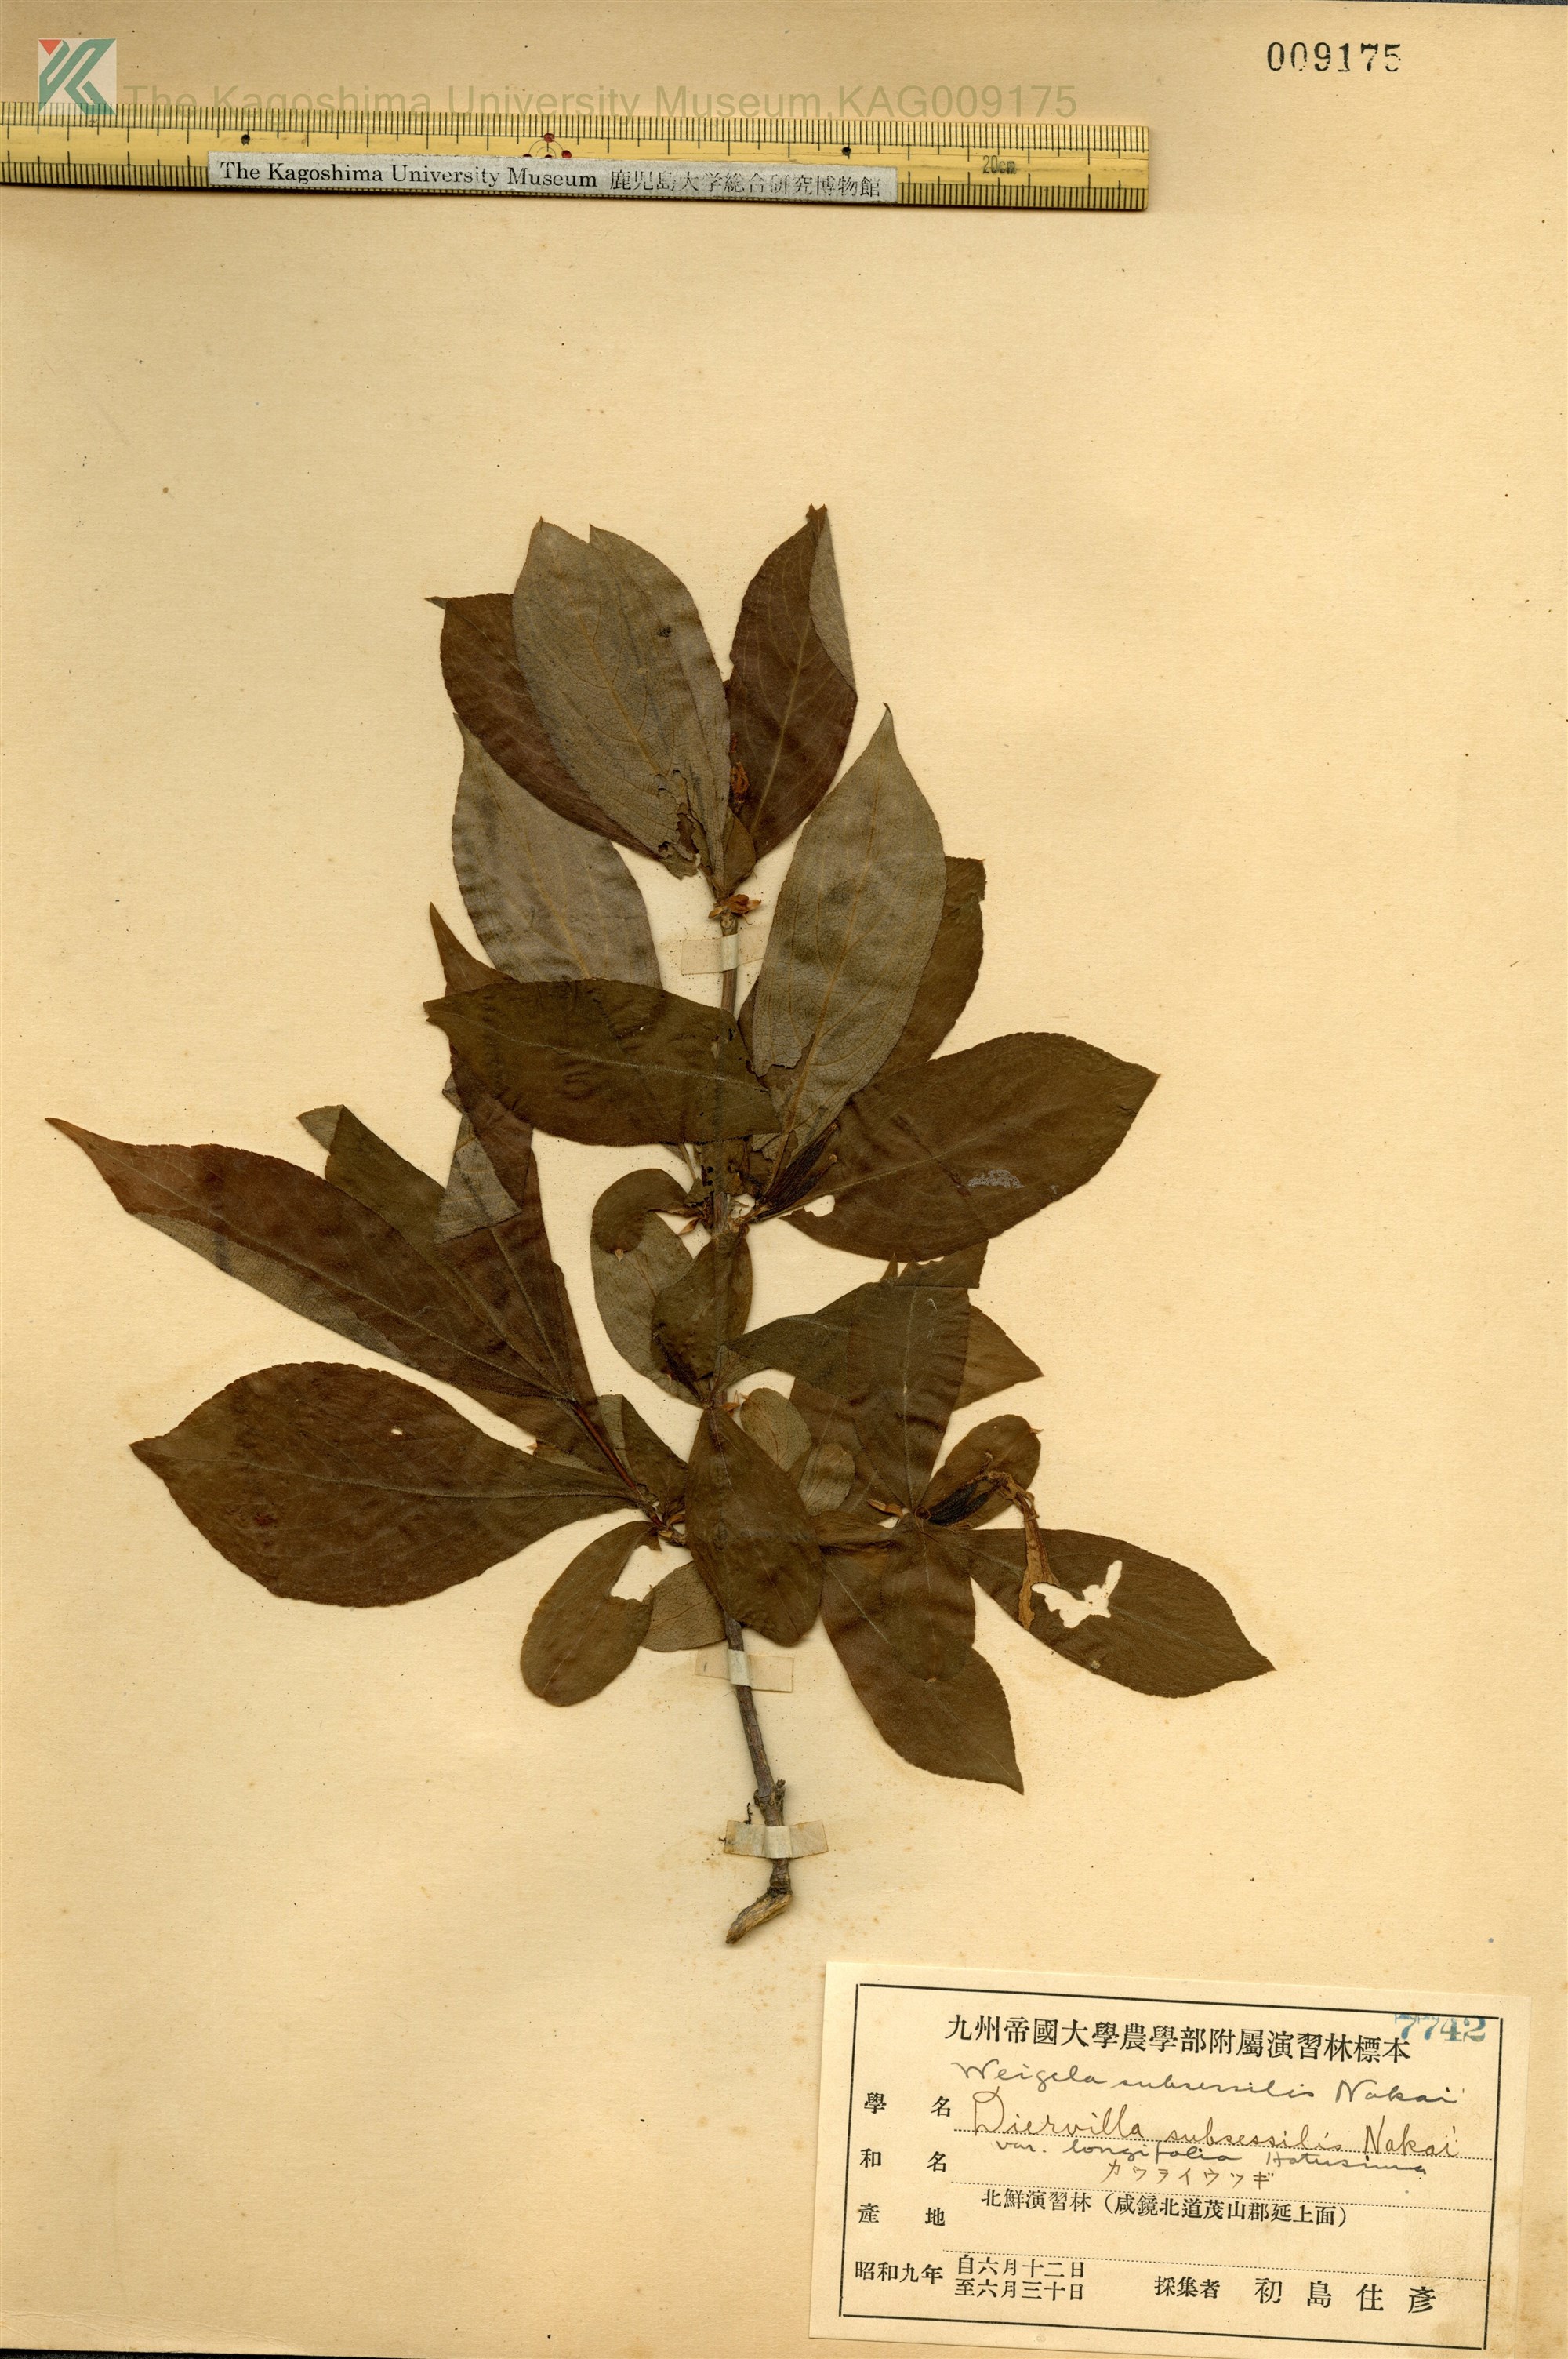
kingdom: Plantae
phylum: Tracheophyta
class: Magnoliopsida
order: Dipsacales
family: Caprifoliaceae
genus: Weigela
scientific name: Weigela decora
